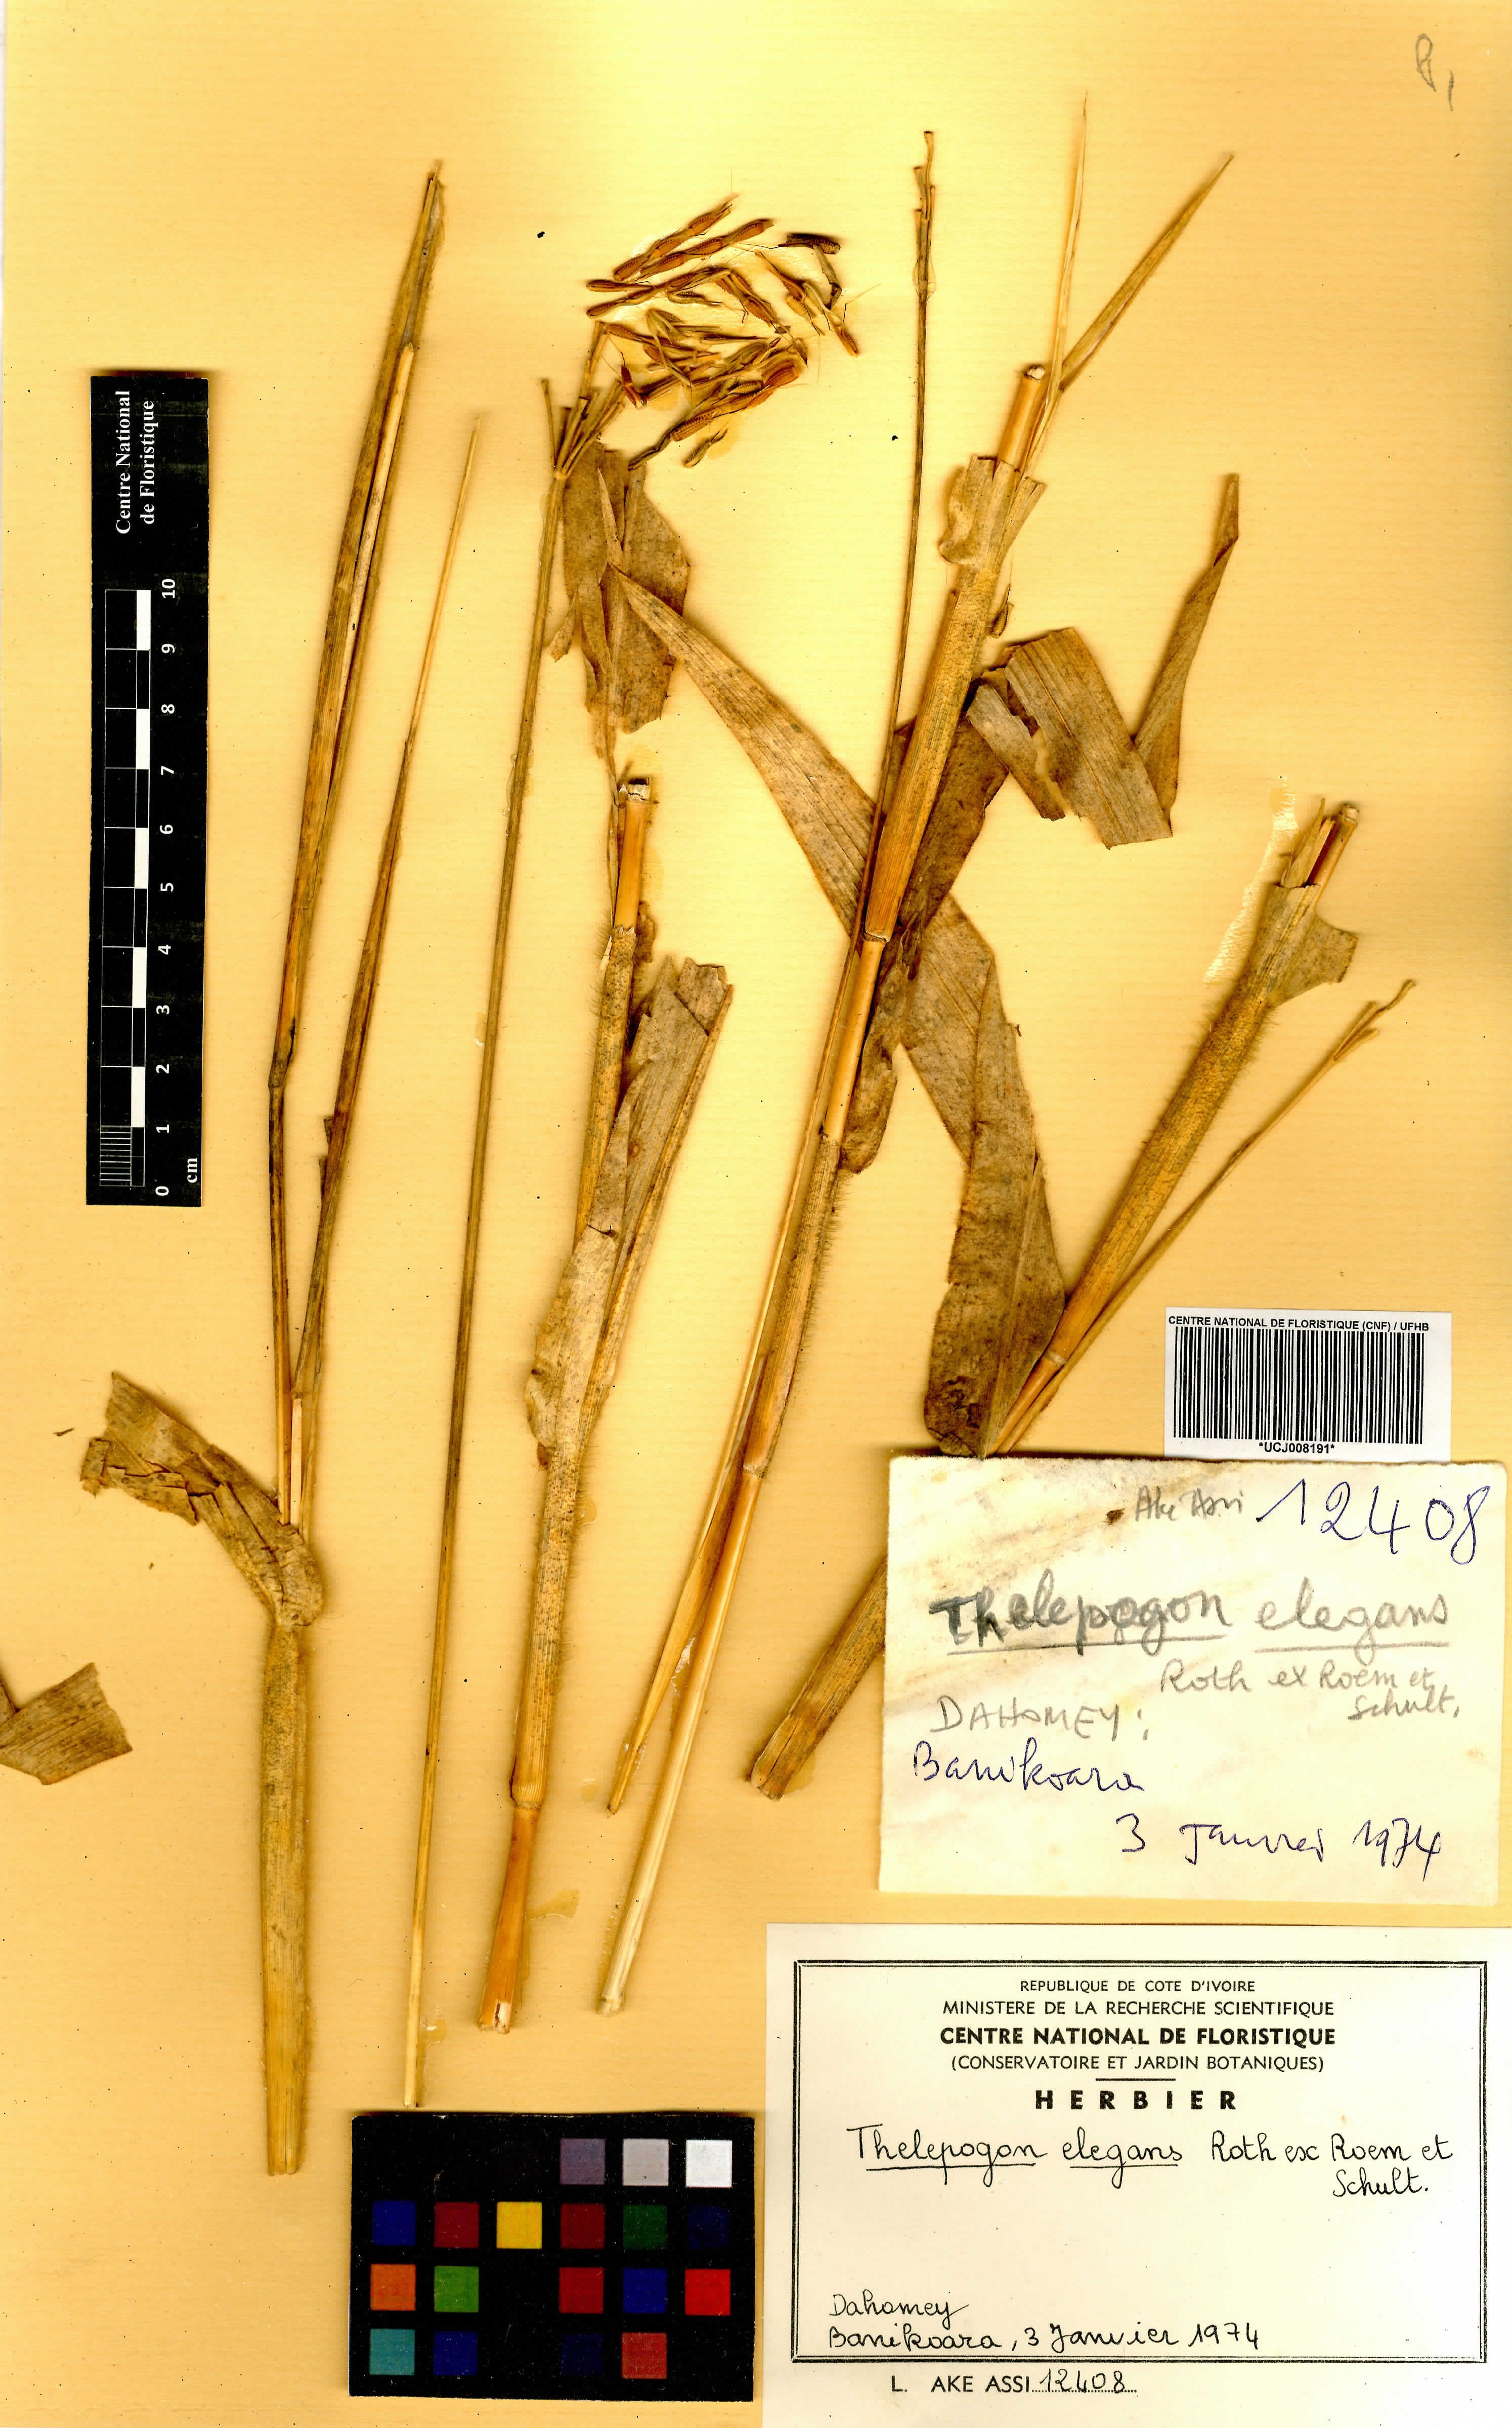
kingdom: Plantae
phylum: Tracheophyta
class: Liliopsida
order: Poales
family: Poaceae
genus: Thelepogon
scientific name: Thelepogon elegans
